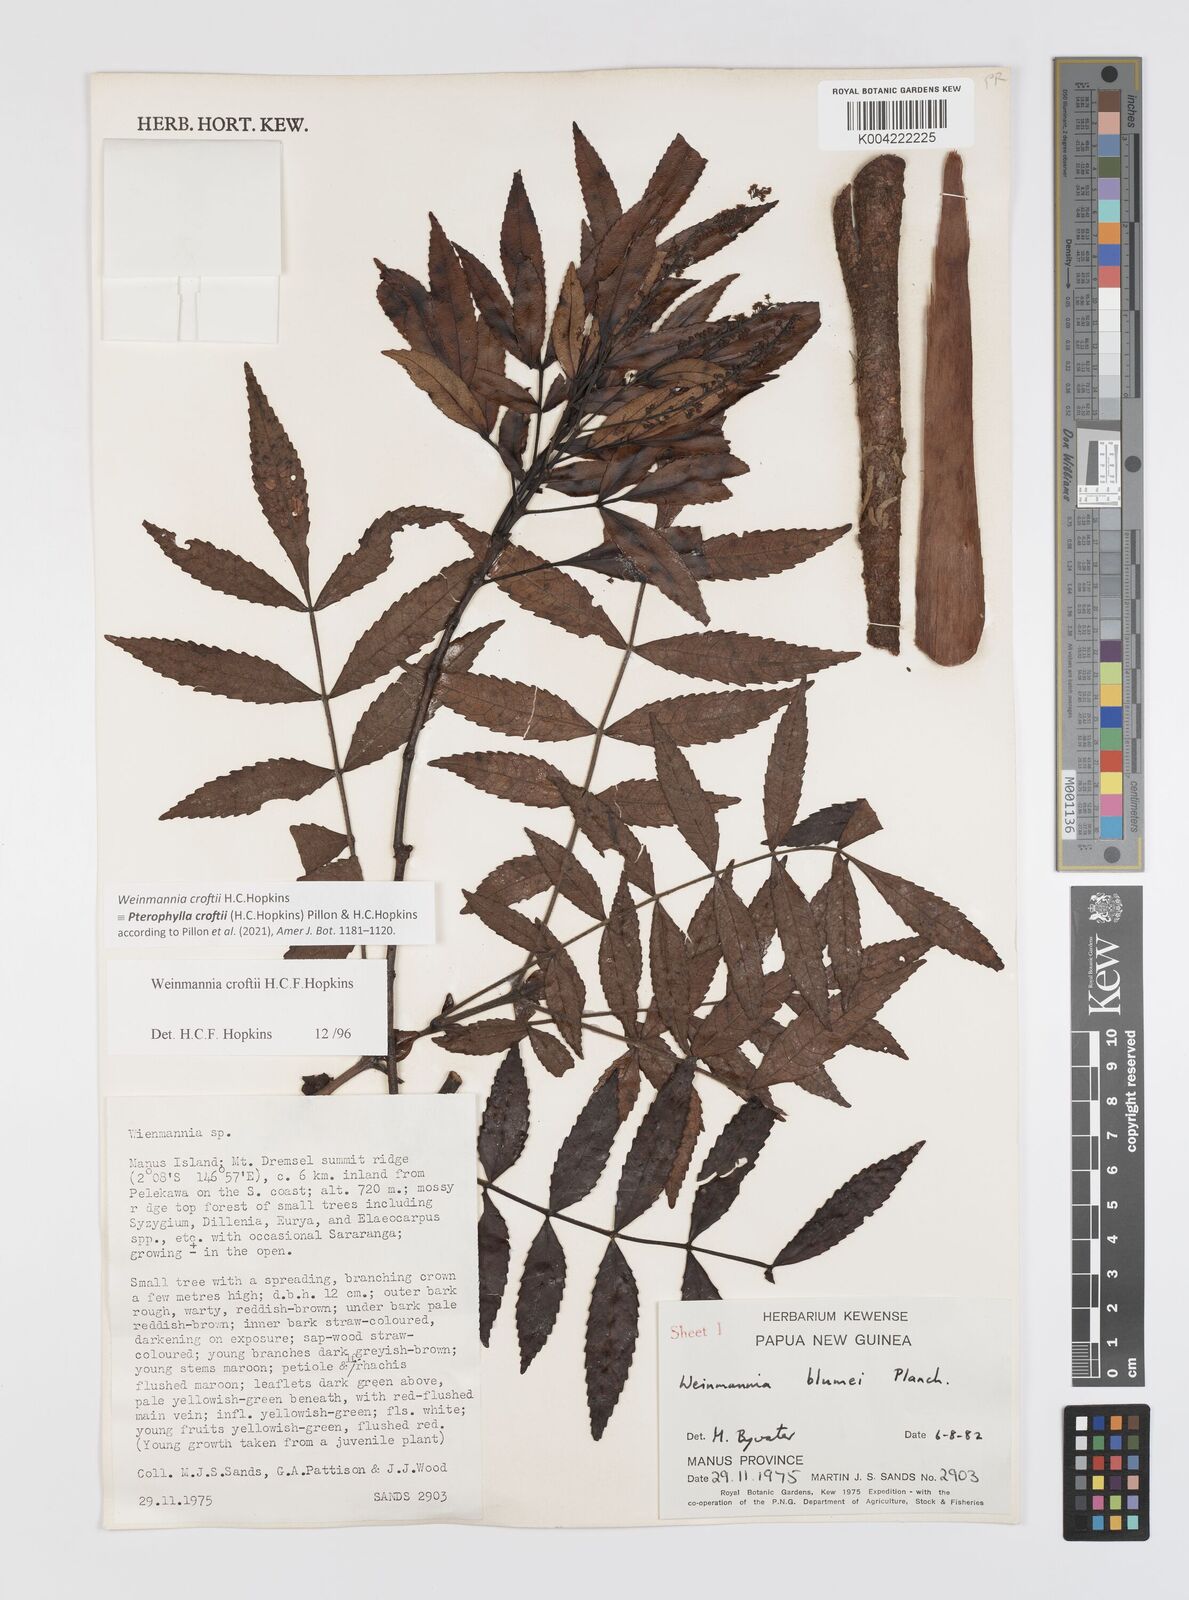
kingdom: Plantae
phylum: Tracheophyta
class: Magnoliopsida
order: Oxalidales
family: Cunoniaceae
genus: Pterophylla
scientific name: Pterophylla croftii
